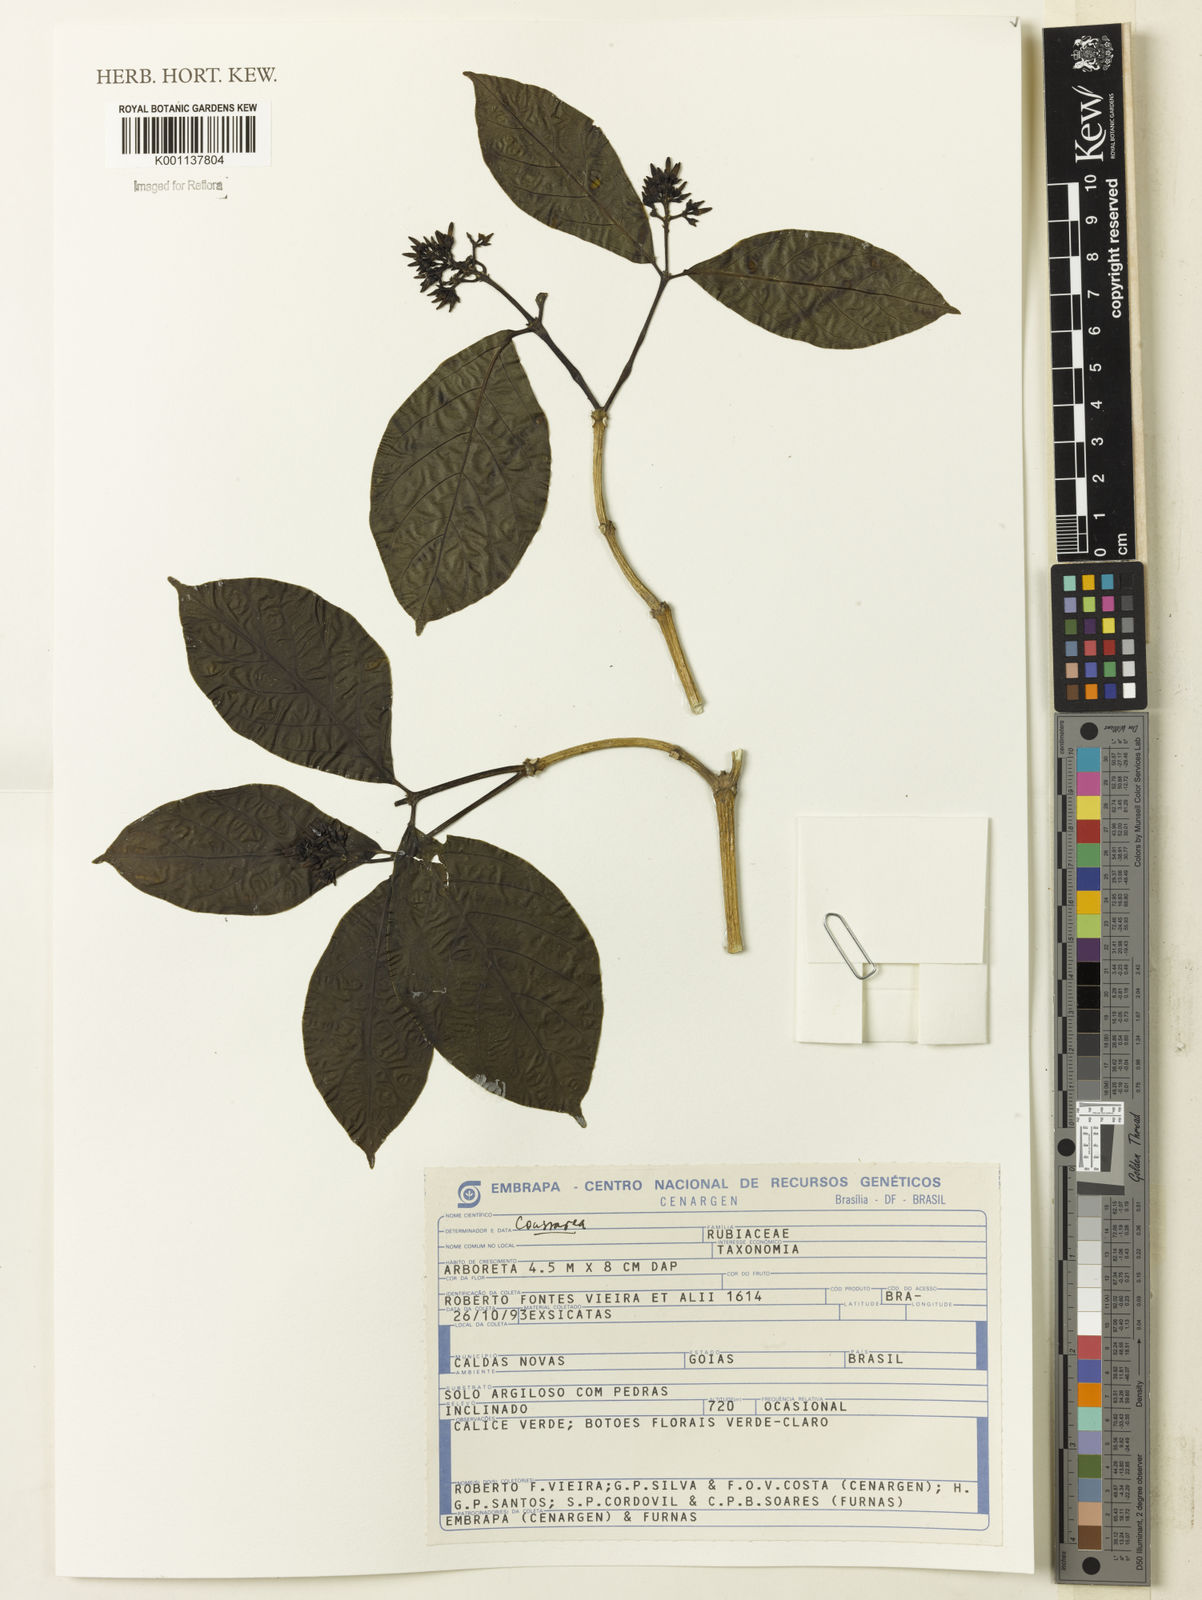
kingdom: Plantae
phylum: Tracheophyta
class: Magnoliopsida
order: Gentianales
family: Rubiaceae
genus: Coussarea
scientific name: Coussarea
